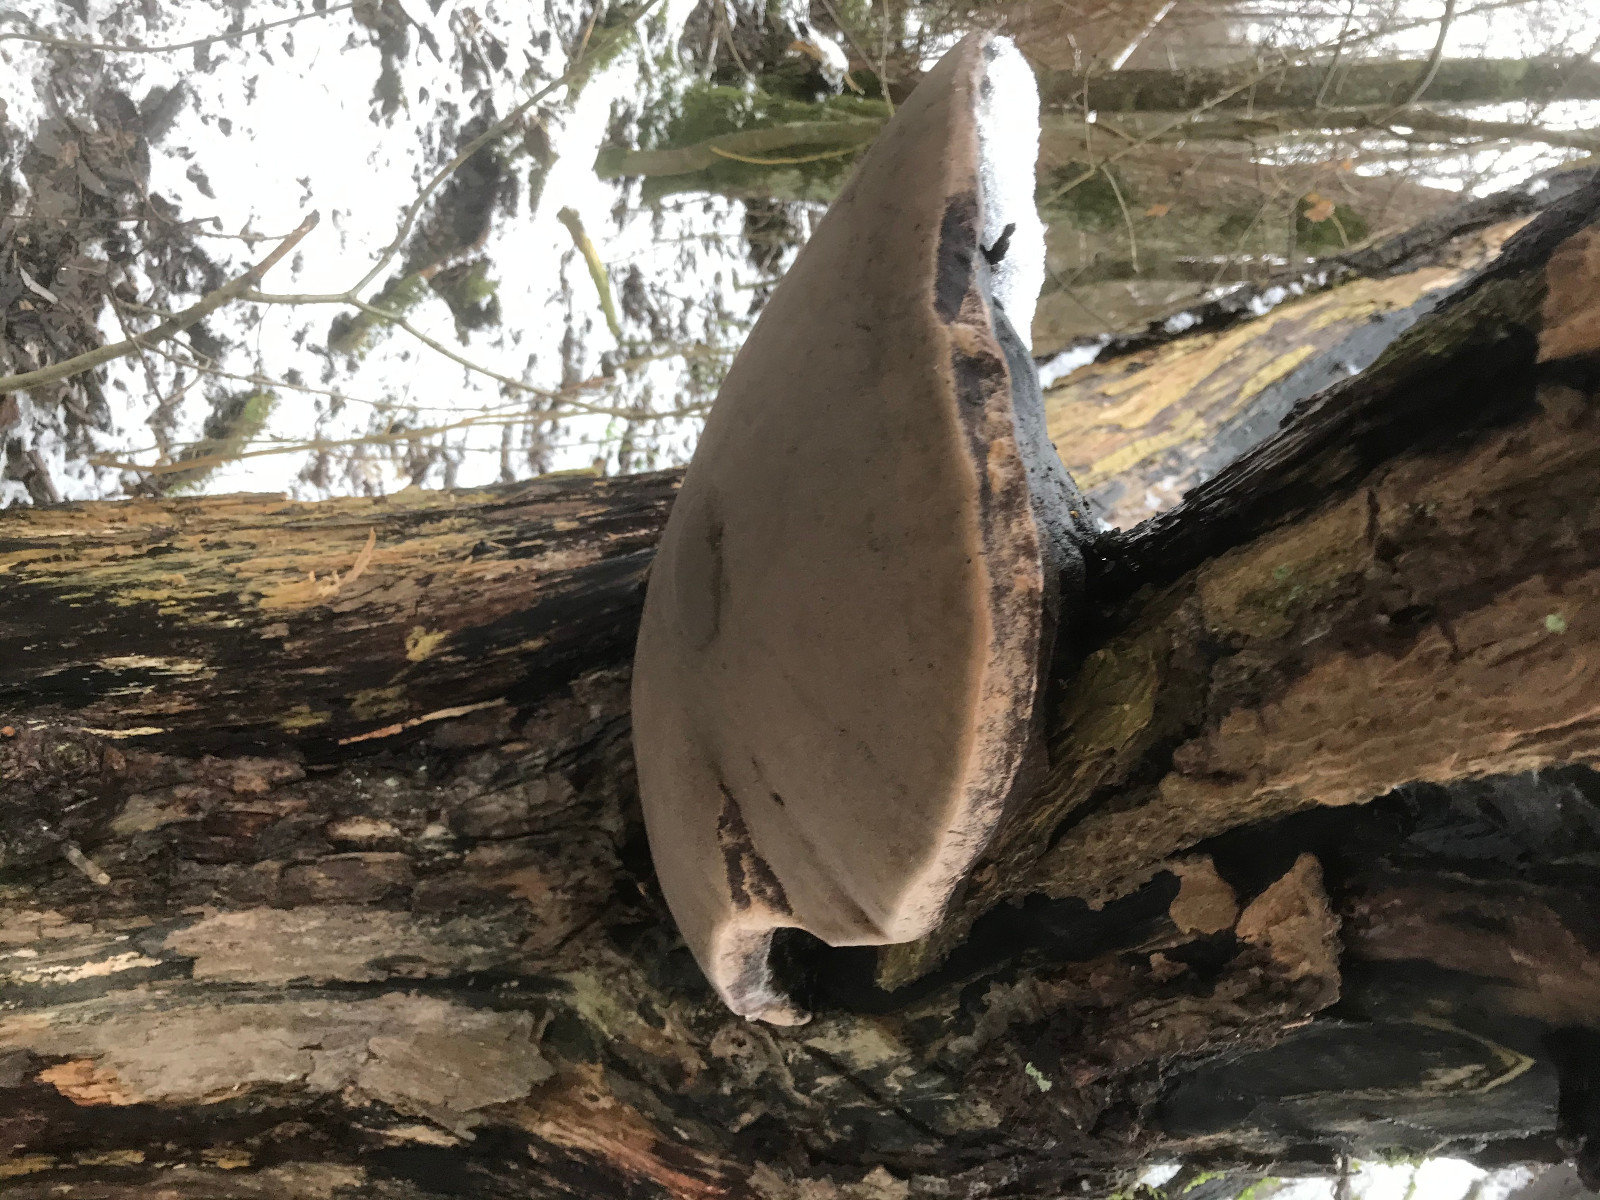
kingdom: Fungi
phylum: Basidiomycota
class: Agaricomycetes
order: Hymenochaetales
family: Hymenochaetaceae
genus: Phellinus
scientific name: Phellinus igniarius
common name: almindelig ildporesvamp
